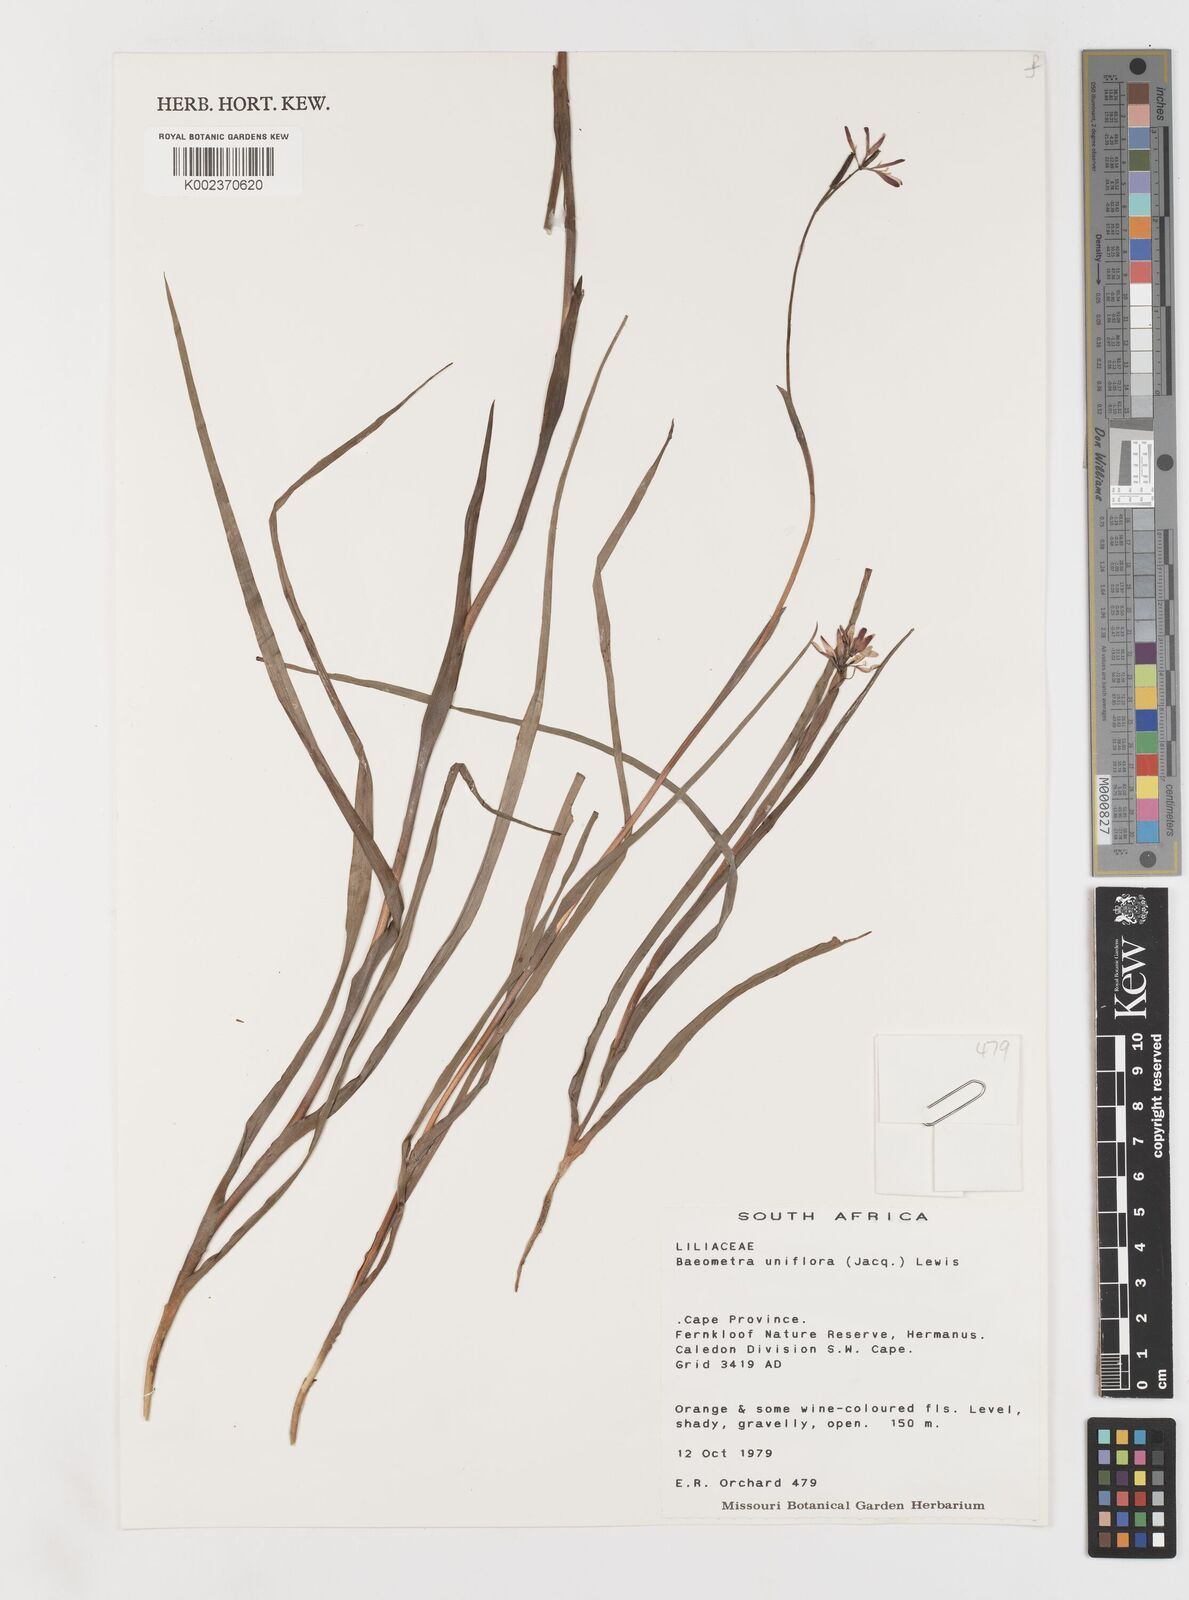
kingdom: Plantae
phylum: Tracheophyta
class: Liliopsida
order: Liliales
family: Colchicaceae
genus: Baeometra
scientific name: Baeometra uniflora
